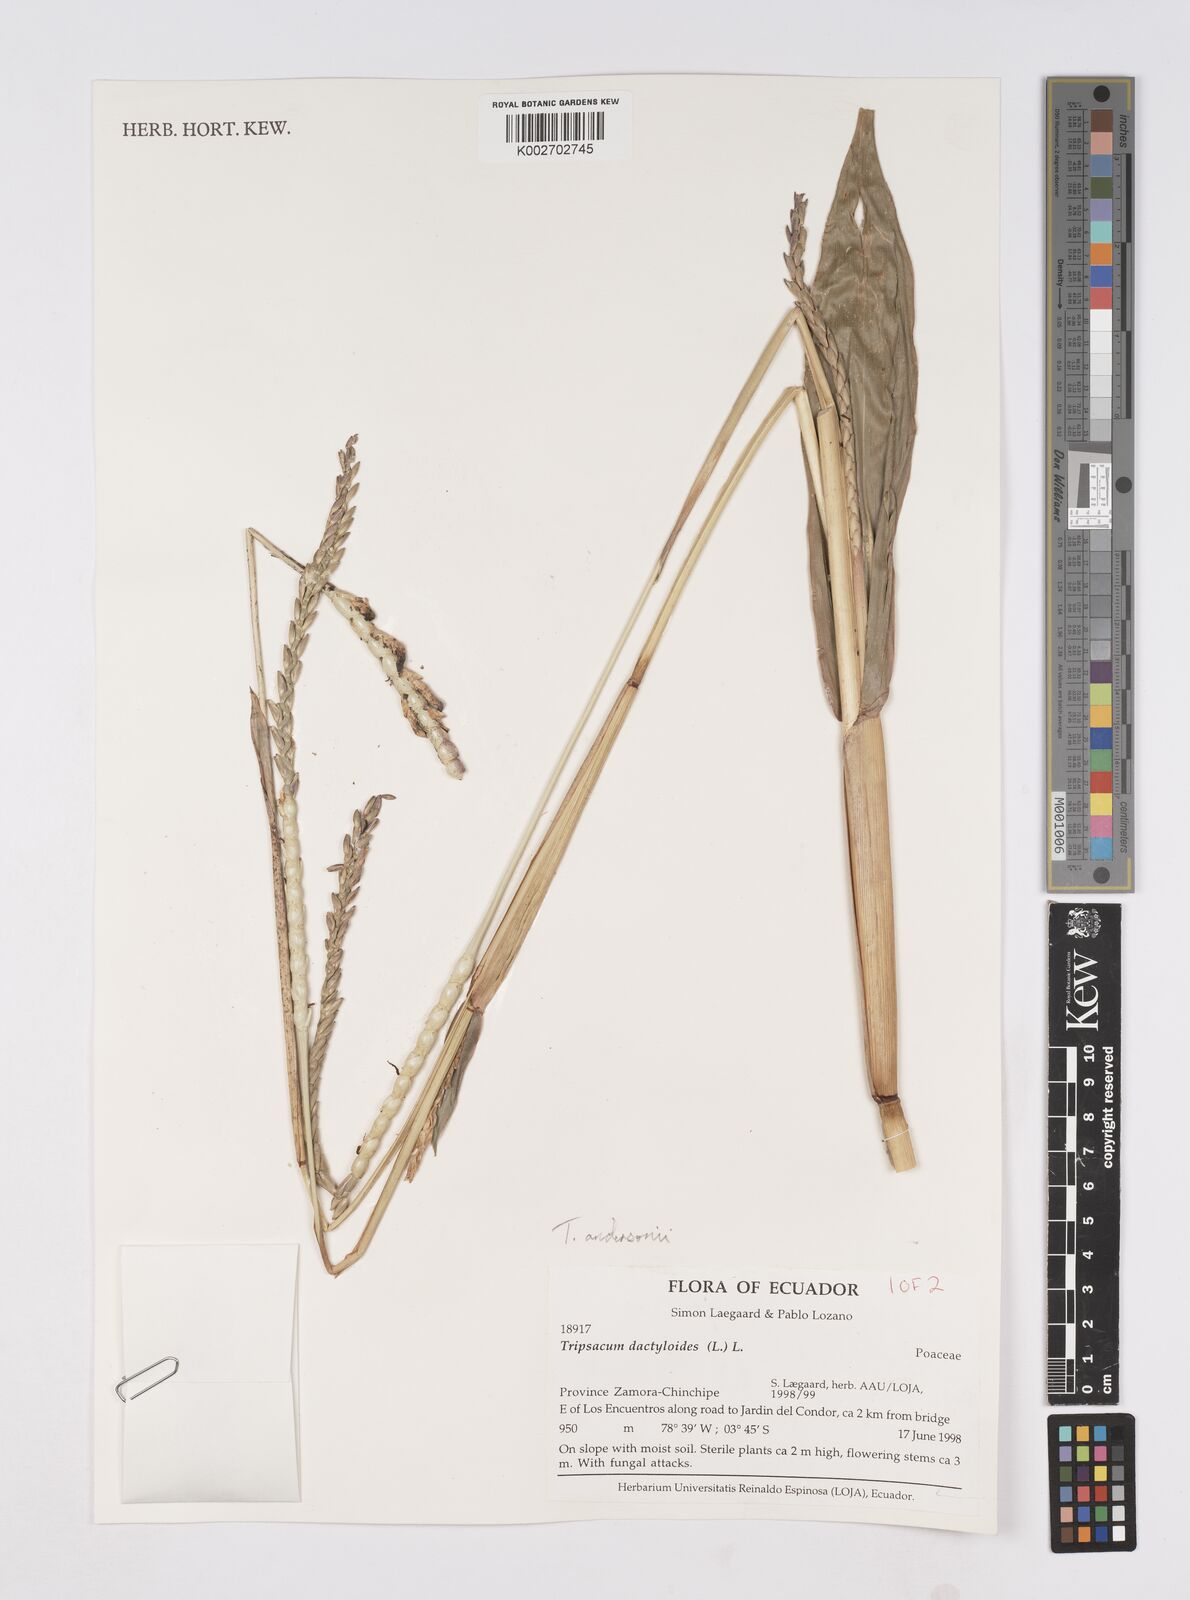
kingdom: Plantae
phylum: Tracheophyta
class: Liliopsida
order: Poales
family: Poaceae
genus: Tripsacum
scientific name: Tripsacum andersonii
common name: Guatemalan grass
